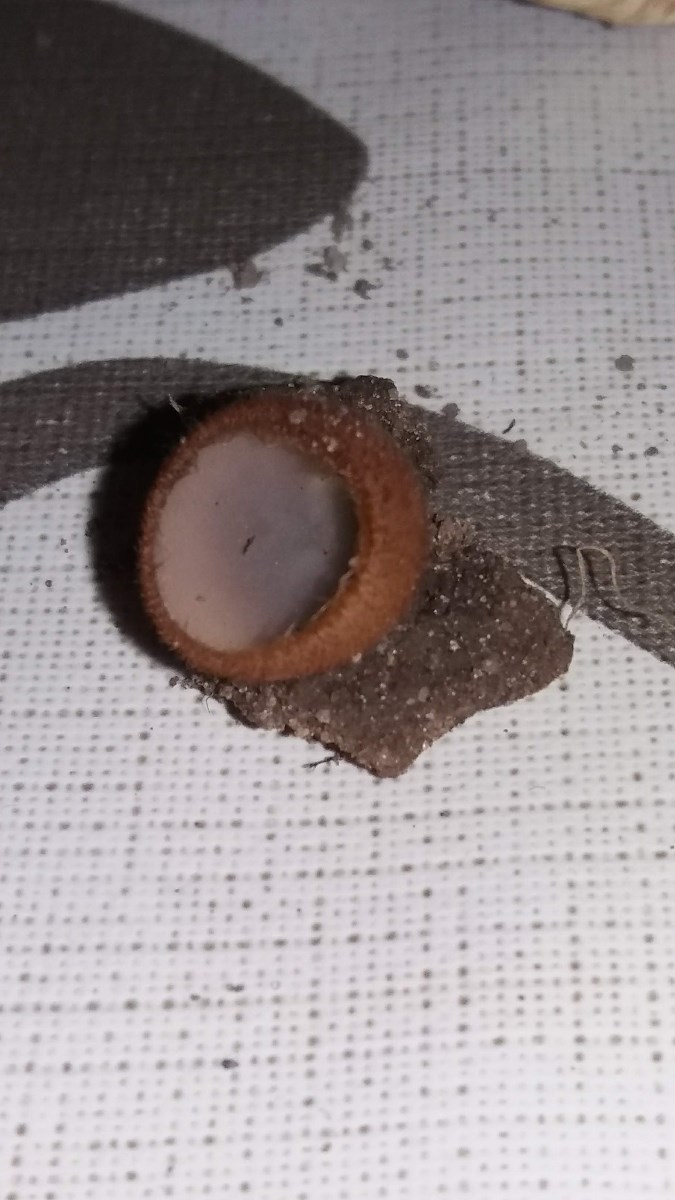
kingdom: Fungi
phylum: Ascomycota
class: Pezizomycetes
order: Pezizales
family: Pyronemataceae
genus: Humaria
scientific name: Humaria hemisphaerica
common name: halvkugleformet børstebæger
